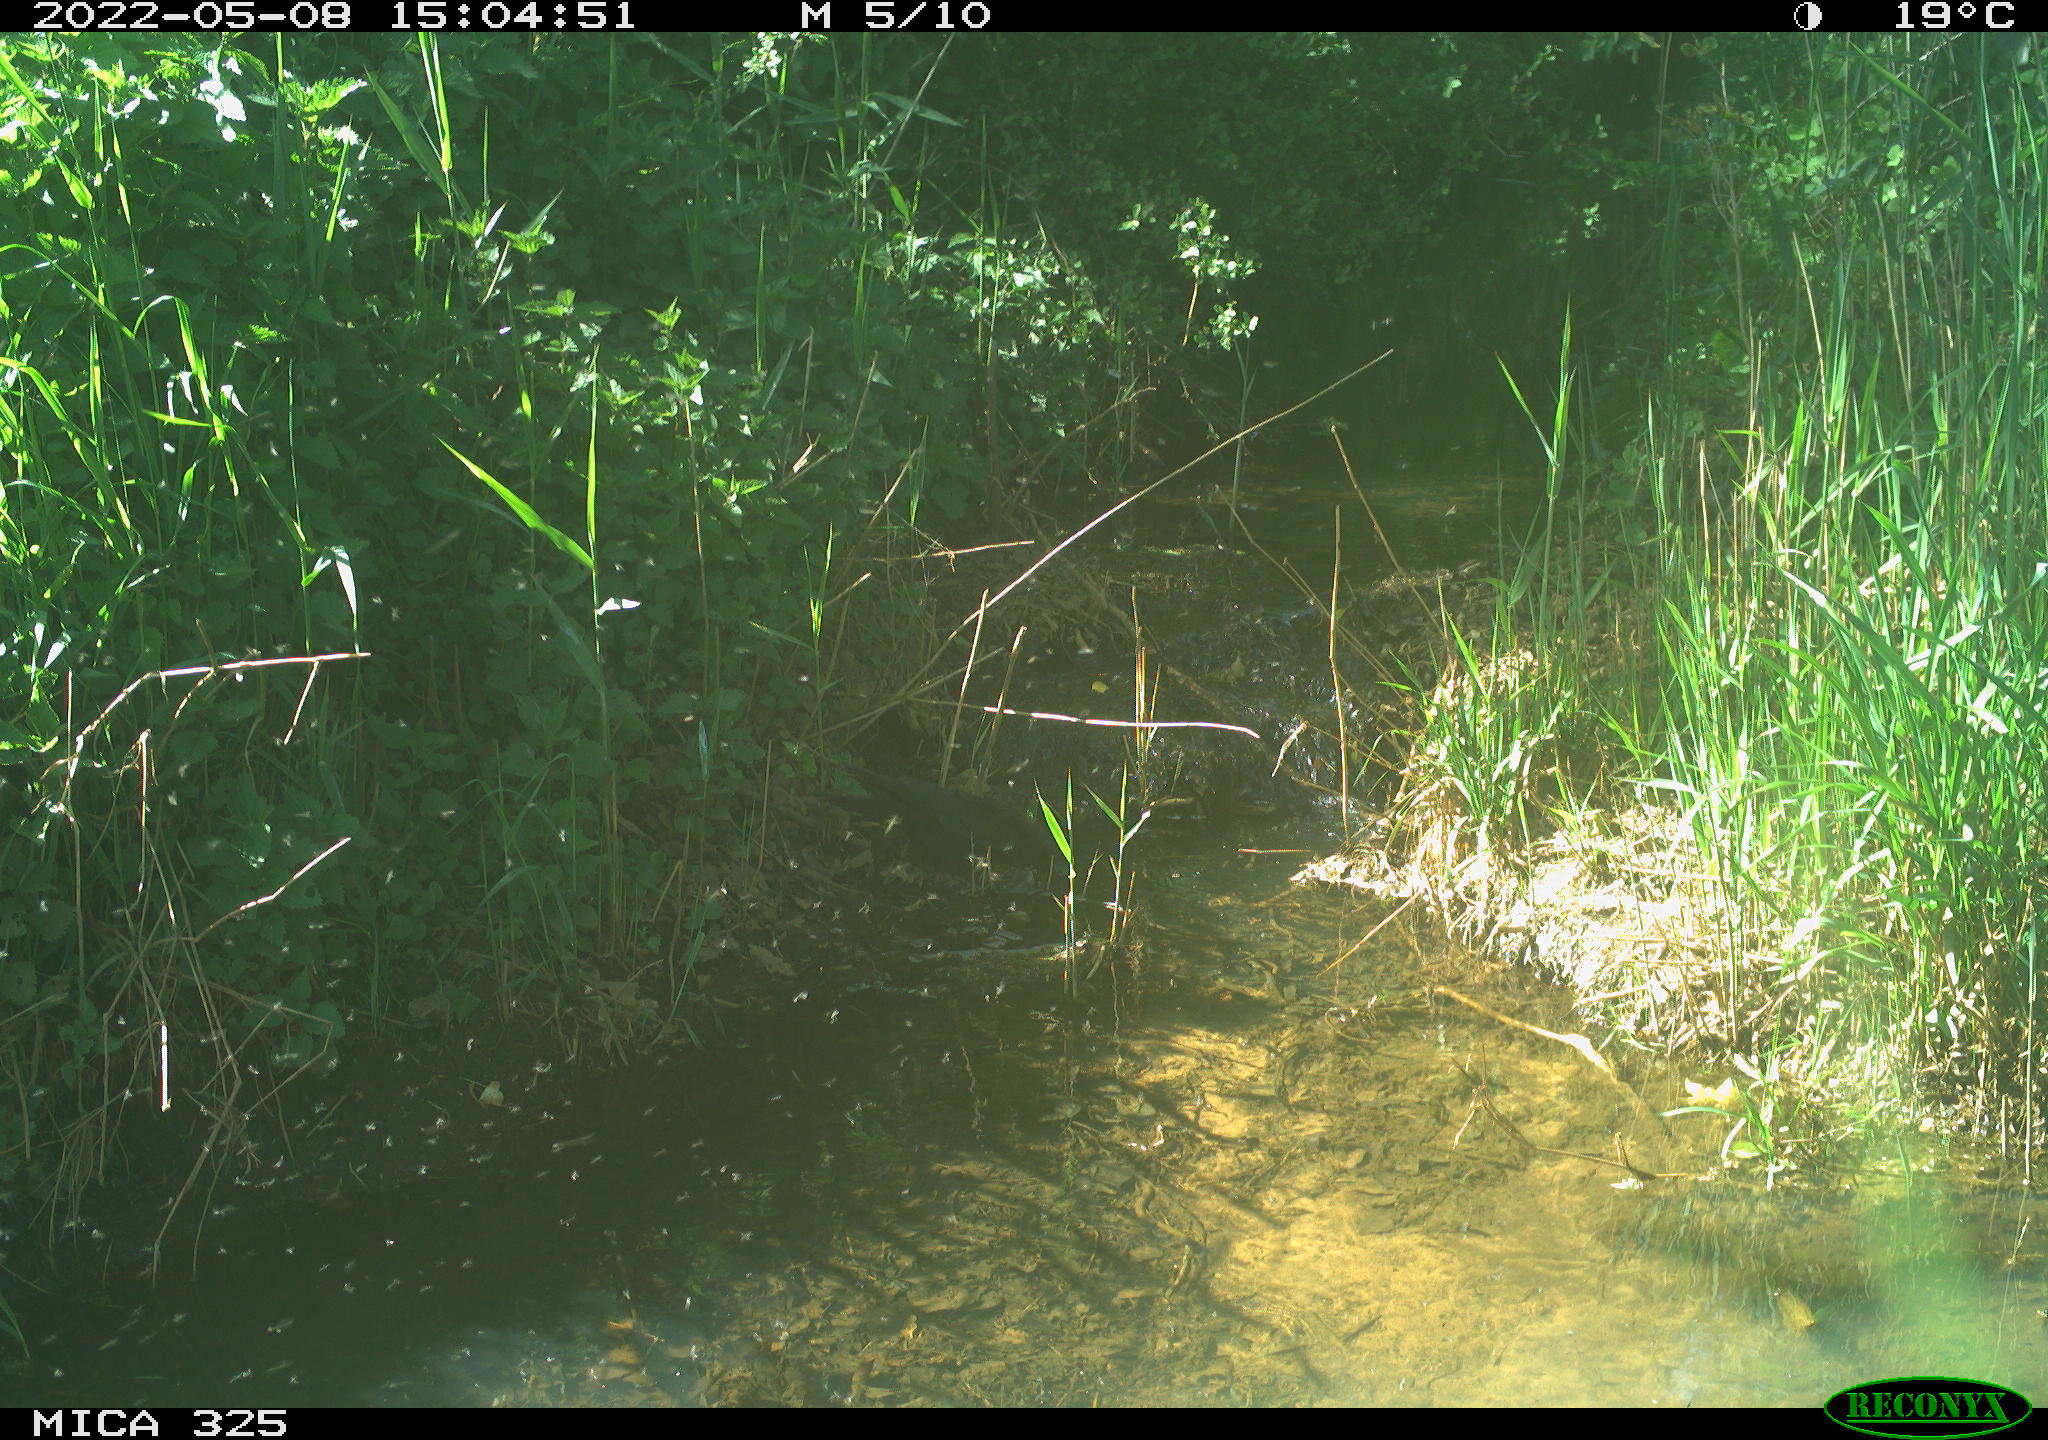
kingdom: Animalia
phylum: Chordata
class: Aves
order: Passeriformes
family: Corvidae
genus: Corvus
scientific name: Corvus corone
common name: Carrion crow
